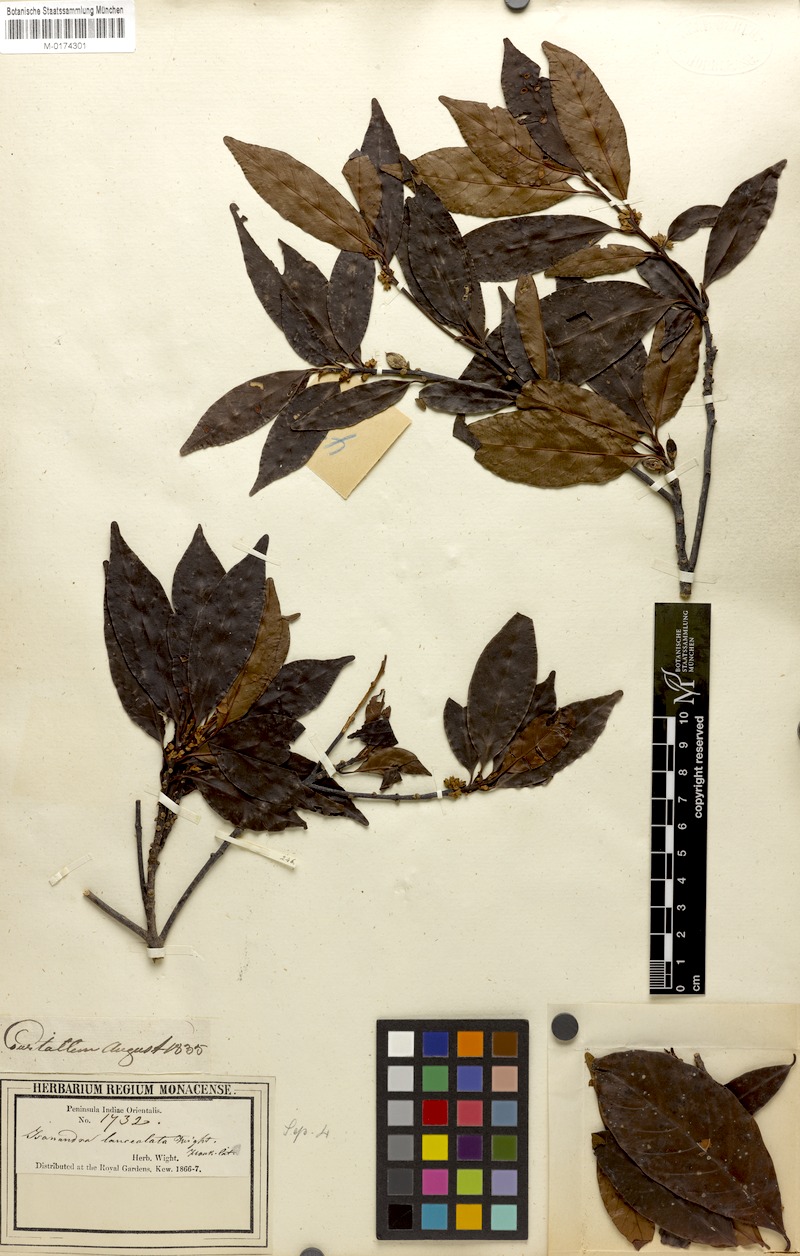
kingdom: Plantae
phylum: Tracheophyta
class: Magnoliopsida
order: Ericales
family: Sapotaceae
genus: Isonandra
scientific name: Isonandra lanceolata
